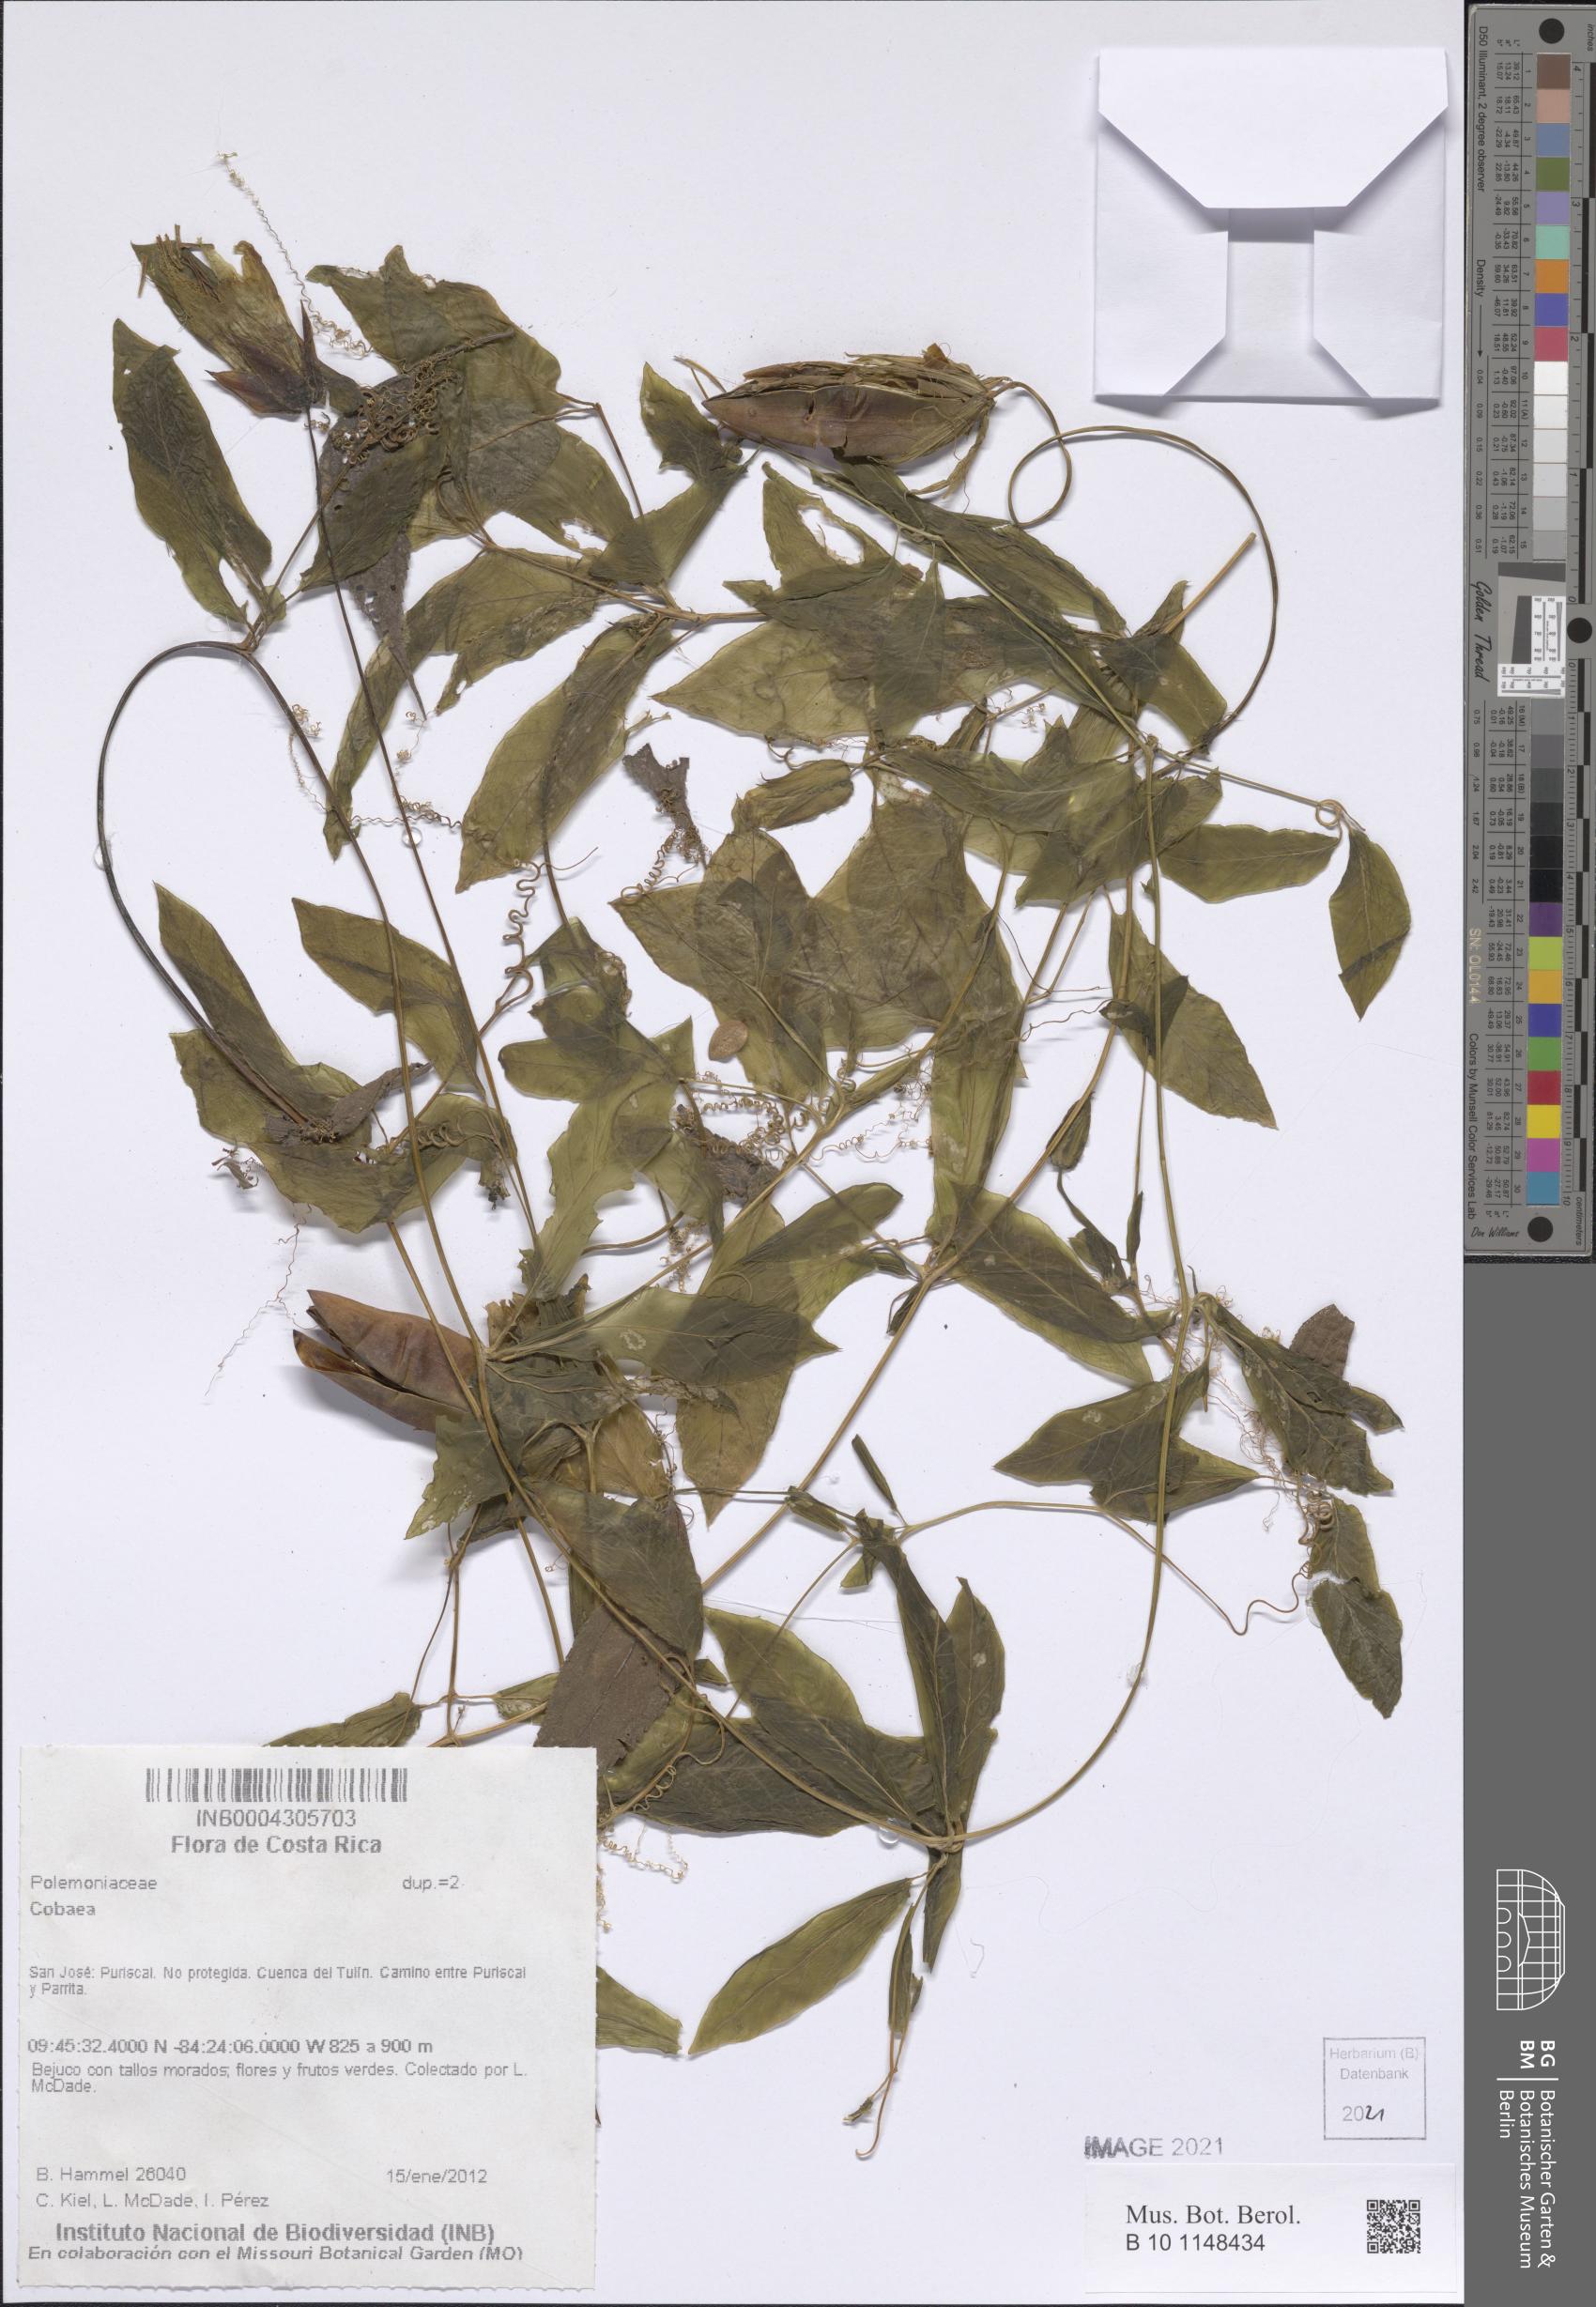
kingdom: Plantae
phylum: Tracheophyta
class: Magnoliopsida
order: Ericales
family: Polemoniaceae
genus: Cobaea
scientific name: Cobaea
